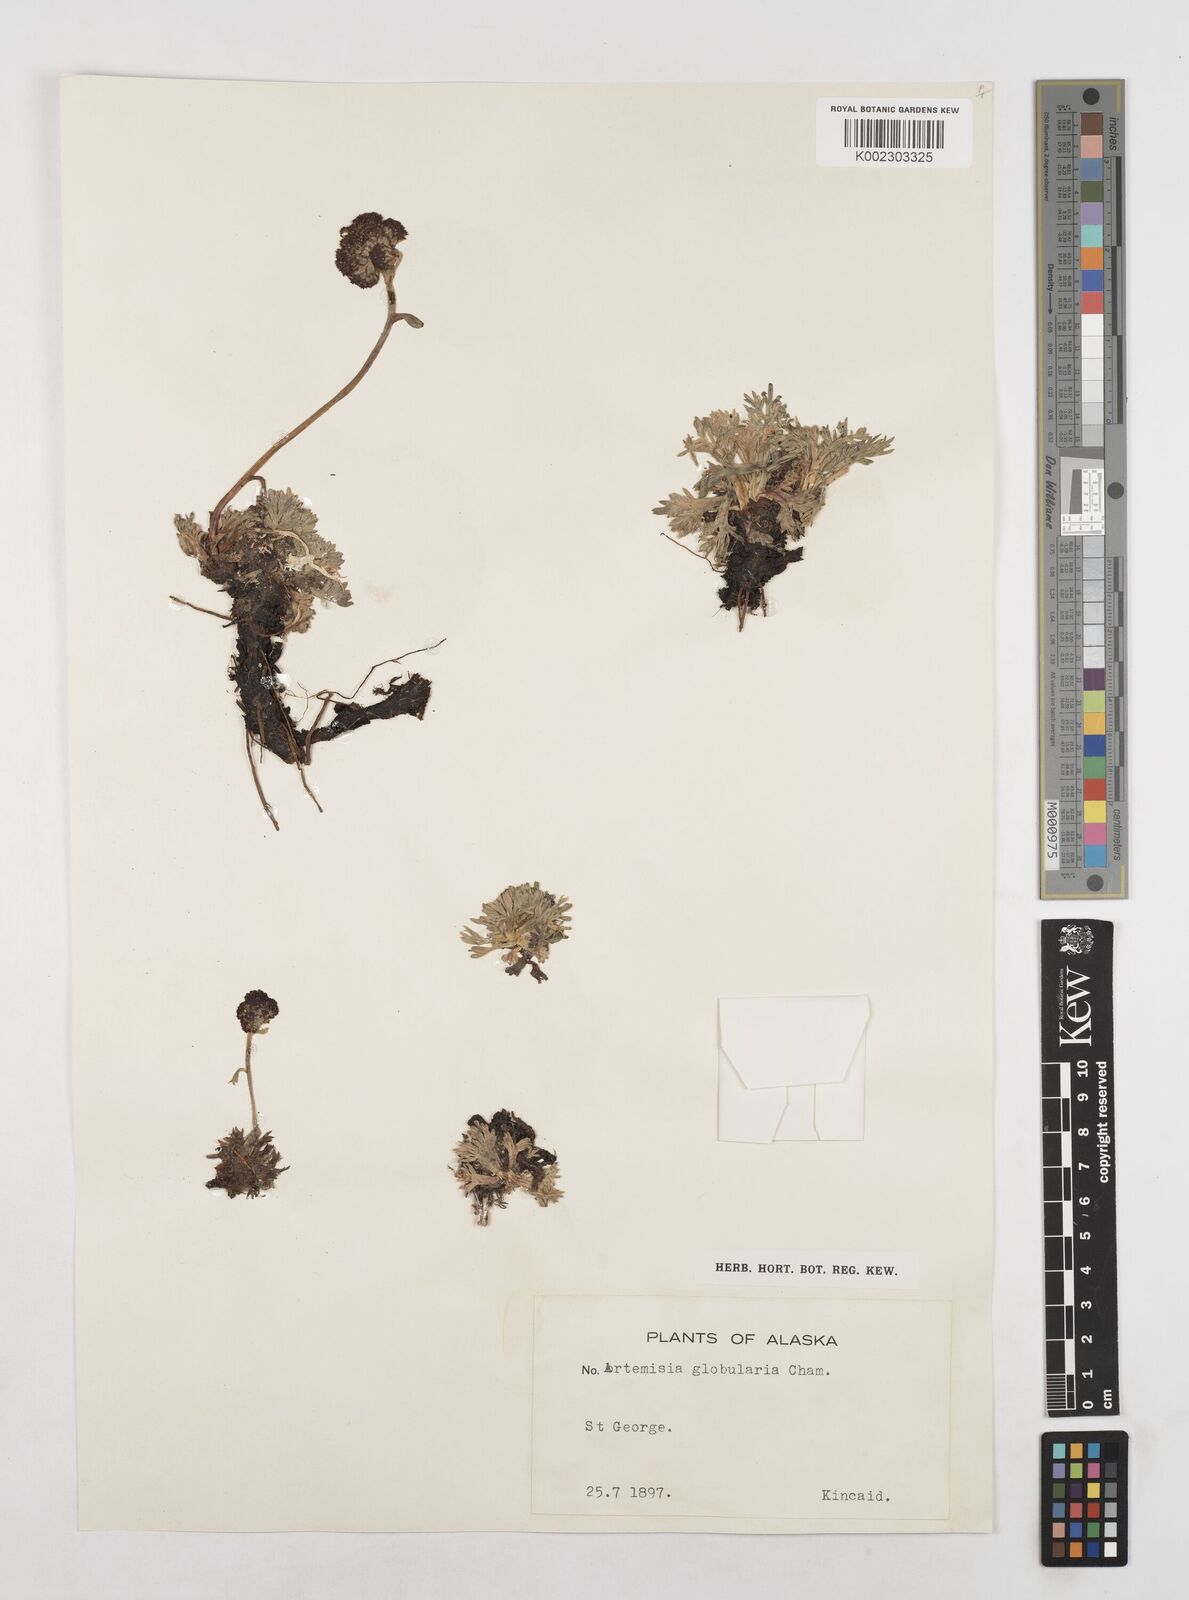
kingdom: Plantae
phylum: Tracheophyta
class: Magnoliopsida
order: Asterales
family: Asteraceae
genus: Artemisia
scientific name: Artemisia globularia
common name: Purple wormwood
